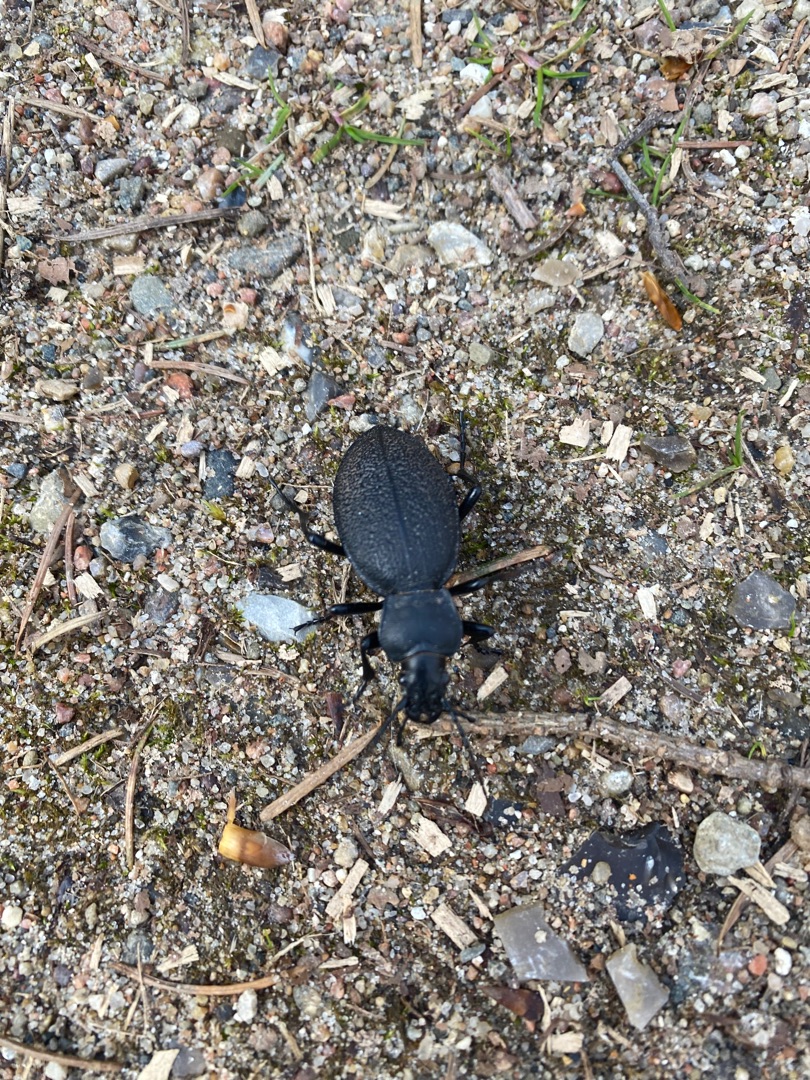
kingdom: Animalia
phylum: Arthropoda
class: Insecta
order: Coleoptera
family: Carabidae
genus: Carabus
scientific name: Carabus coriaceus
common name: Læderløber
